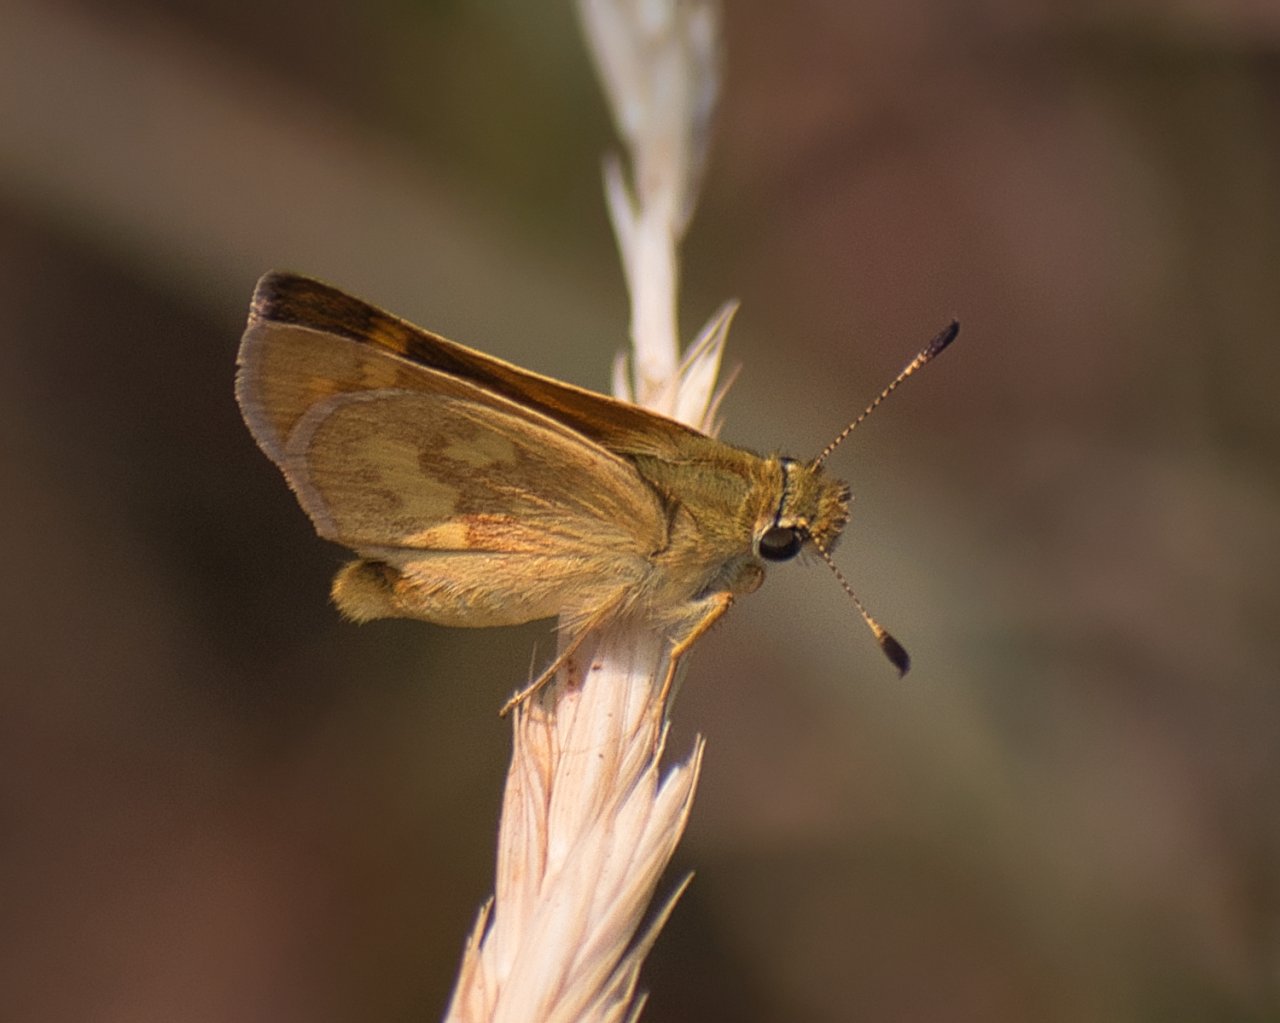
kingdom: Animalia
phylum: Arthropoda
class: Insecta
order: Lepidoptera
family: Hesperiidae
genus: Ochlodes
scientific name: Ochlodes sylvanoides
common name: Woodland Skipper
